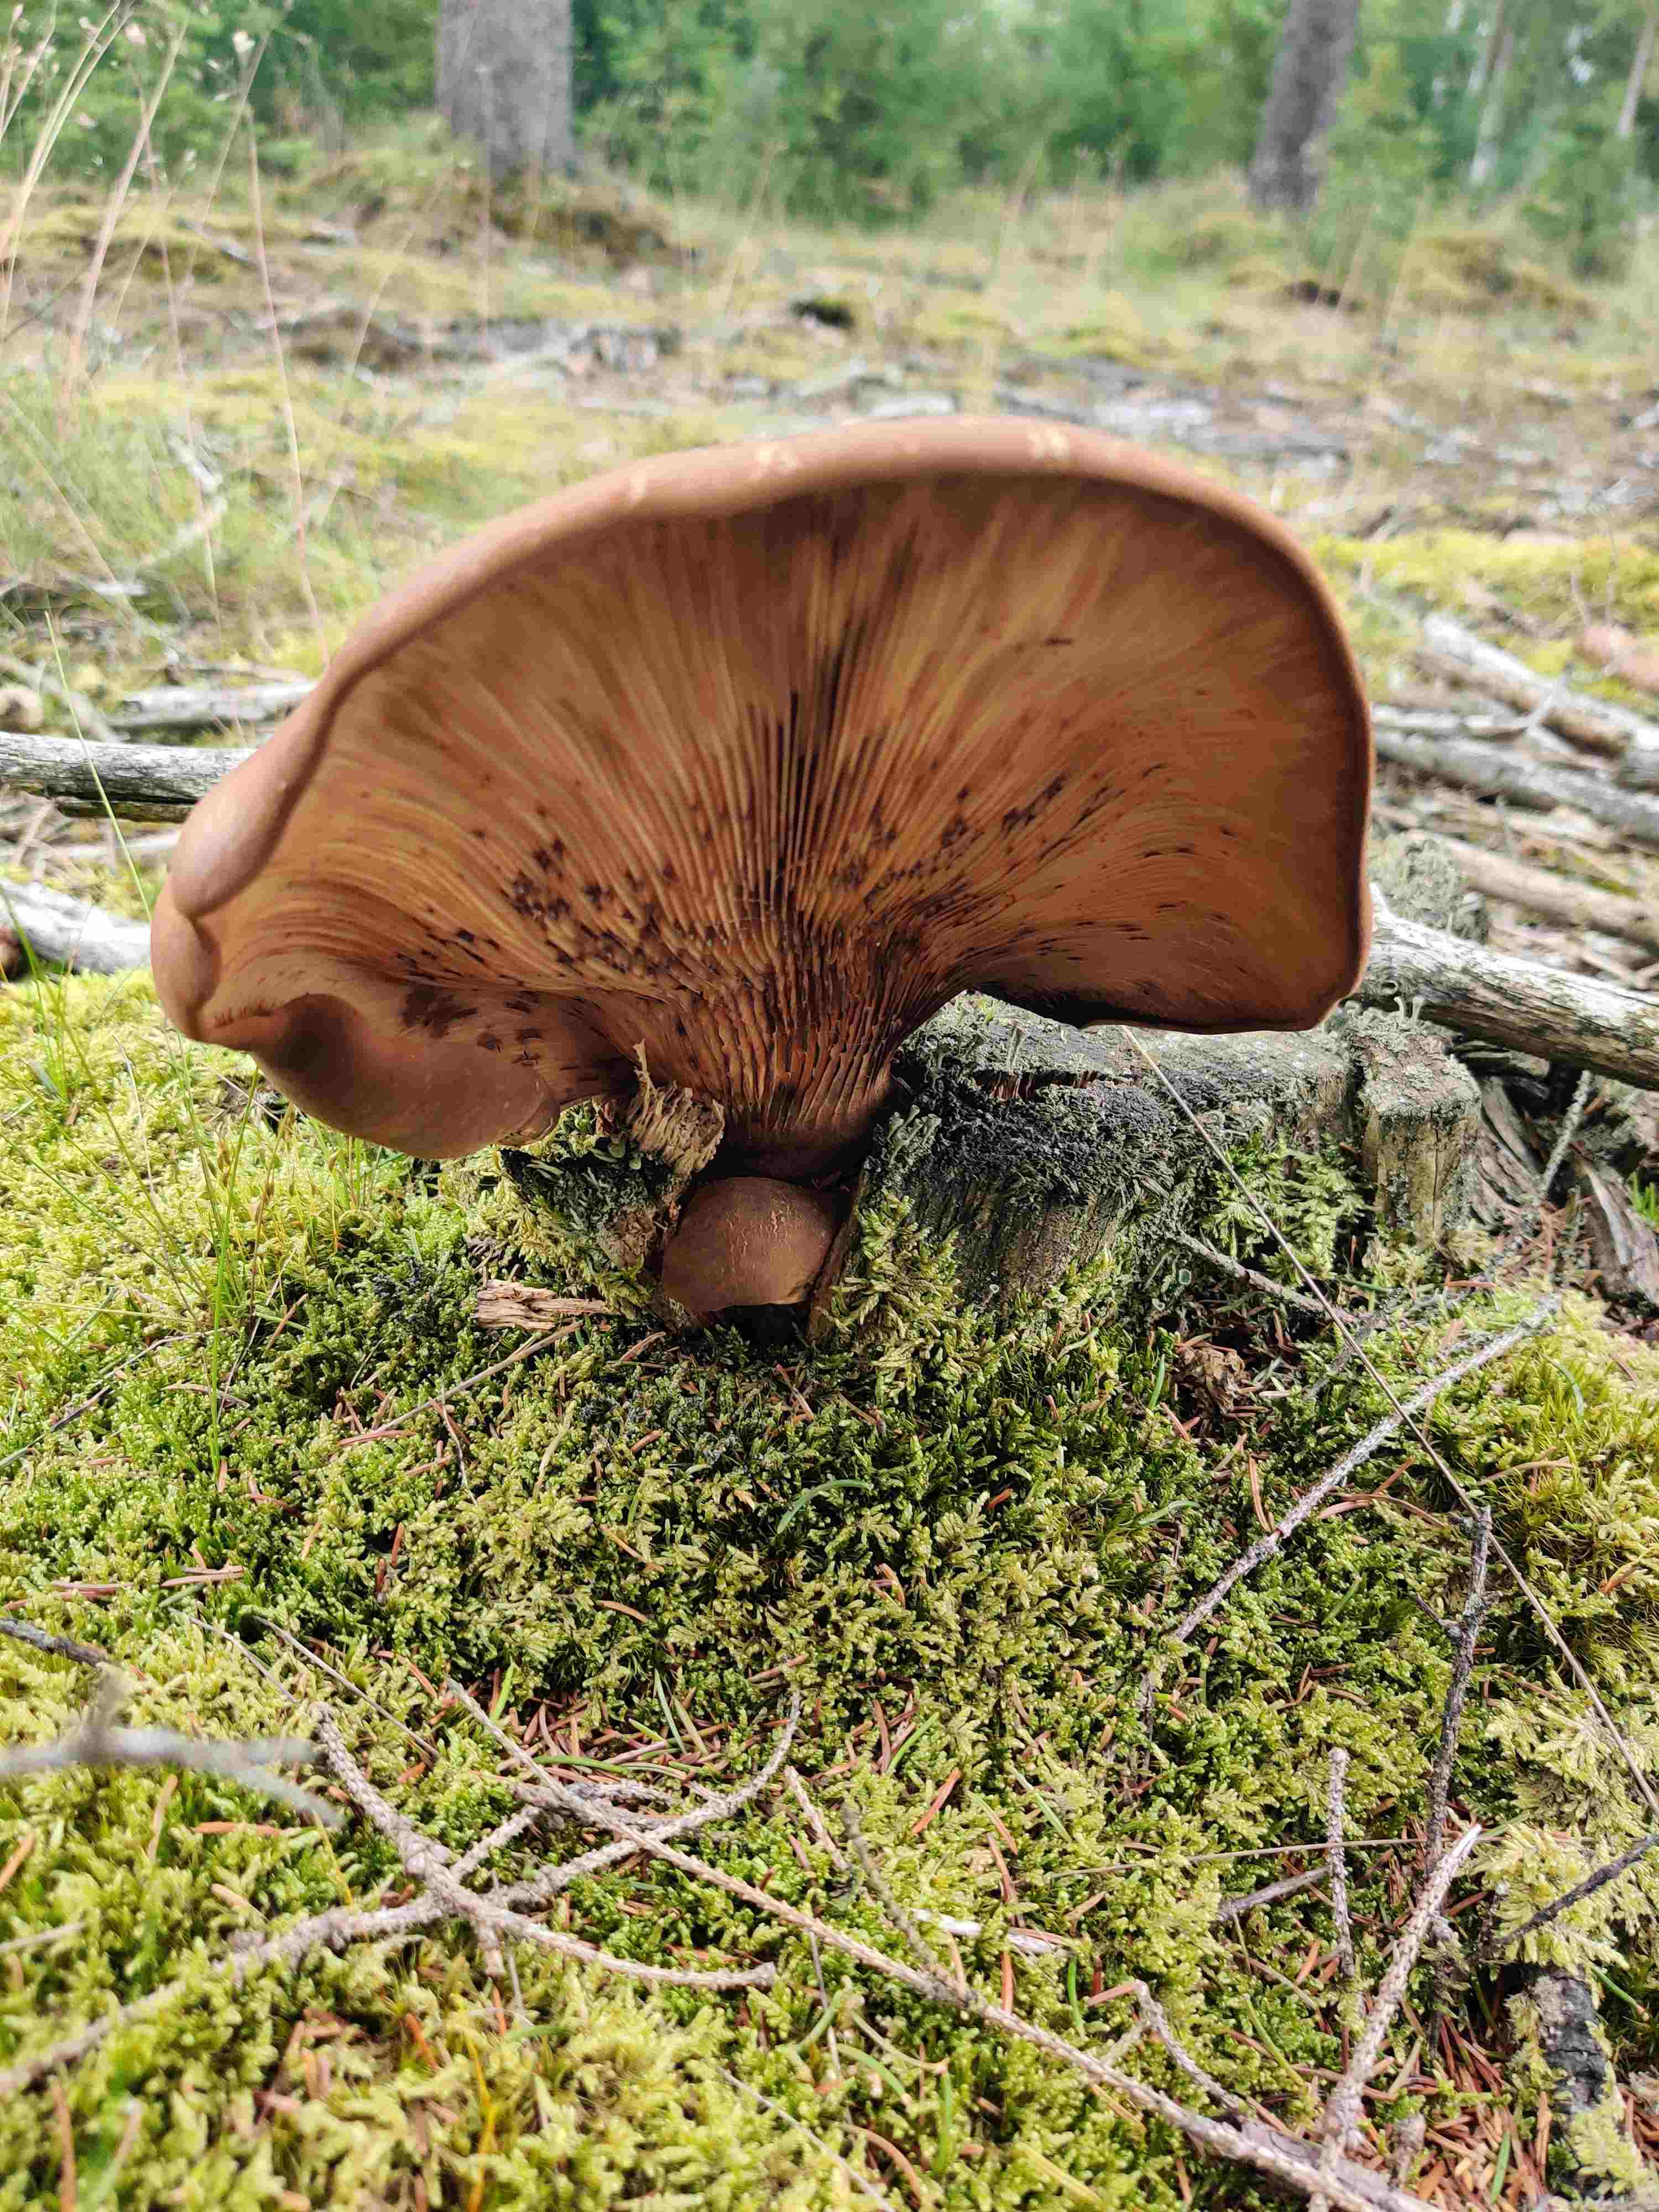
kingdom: Fungi
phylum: Basidiomycota
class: Agaricomycetes
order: Boletales
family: Tapinellaceae
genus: Tapinella
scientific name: Tapinella atrotomentosa
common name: sortfiltet viftesvamp
